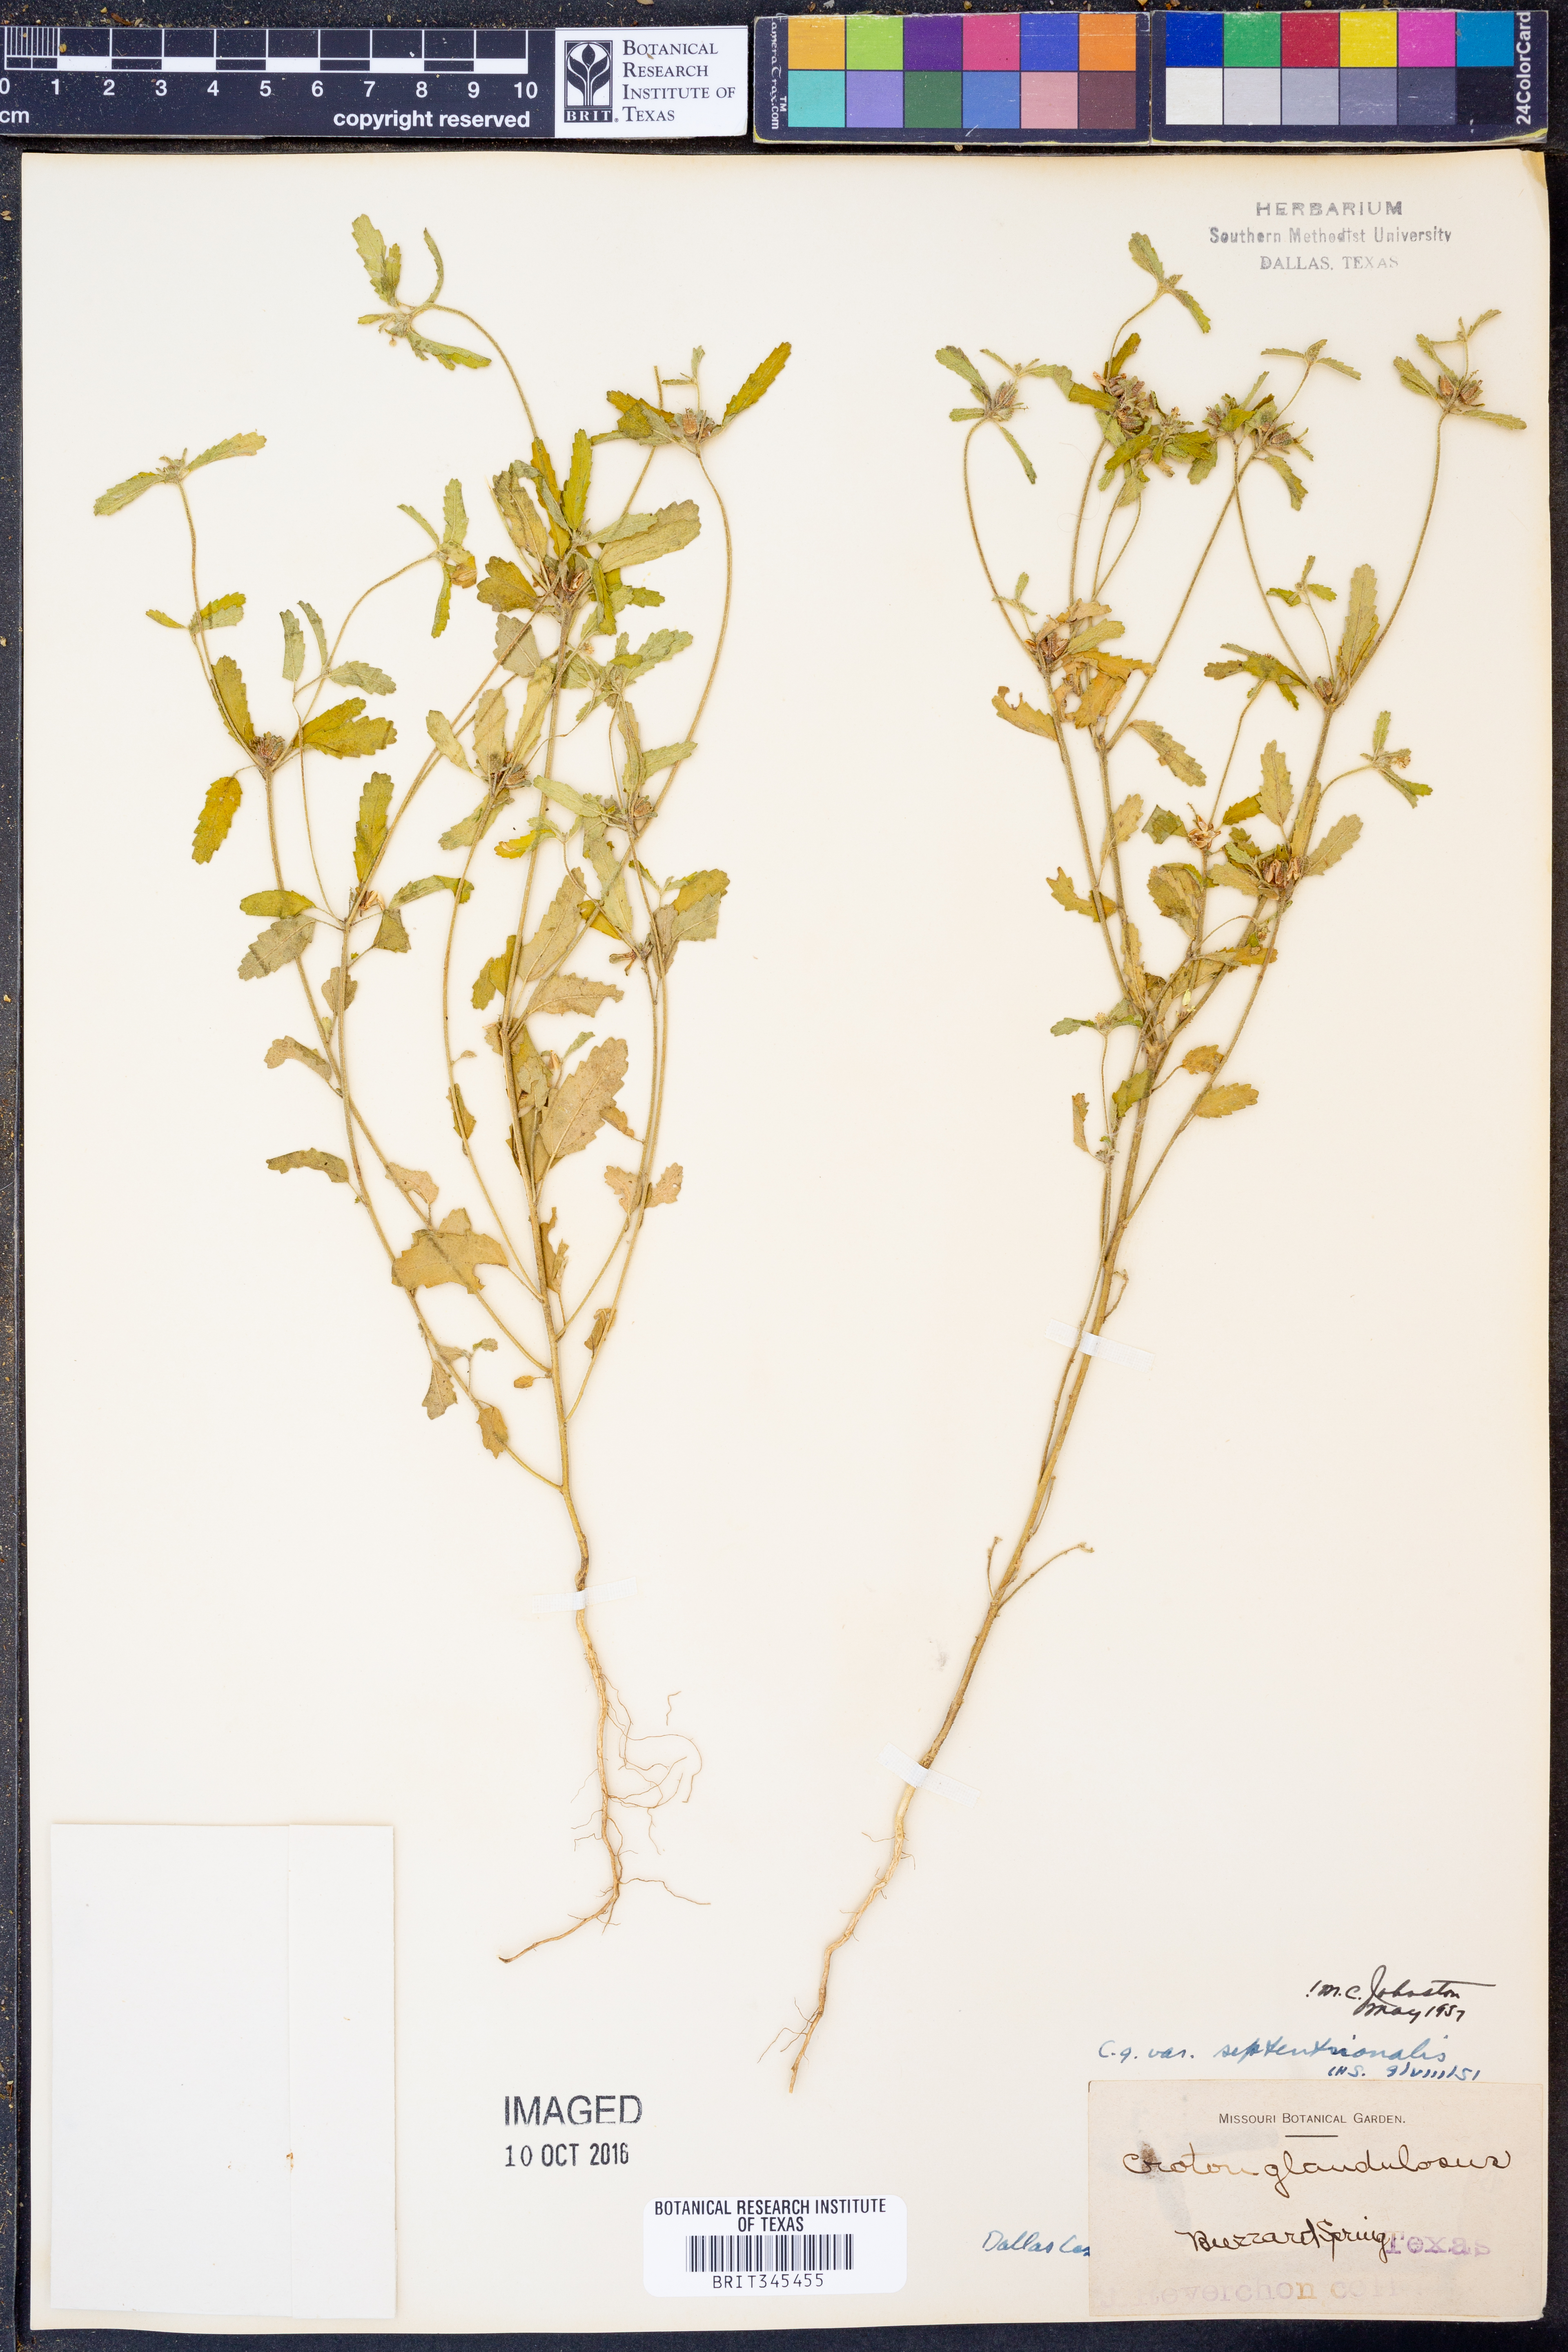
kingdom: Plantae
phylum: Tracheophyta
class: Magnoliopsida
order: Malpighiales
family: Euphorbiaceae
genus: Croton
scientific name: Croton glandulosus
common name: Tropic croton
